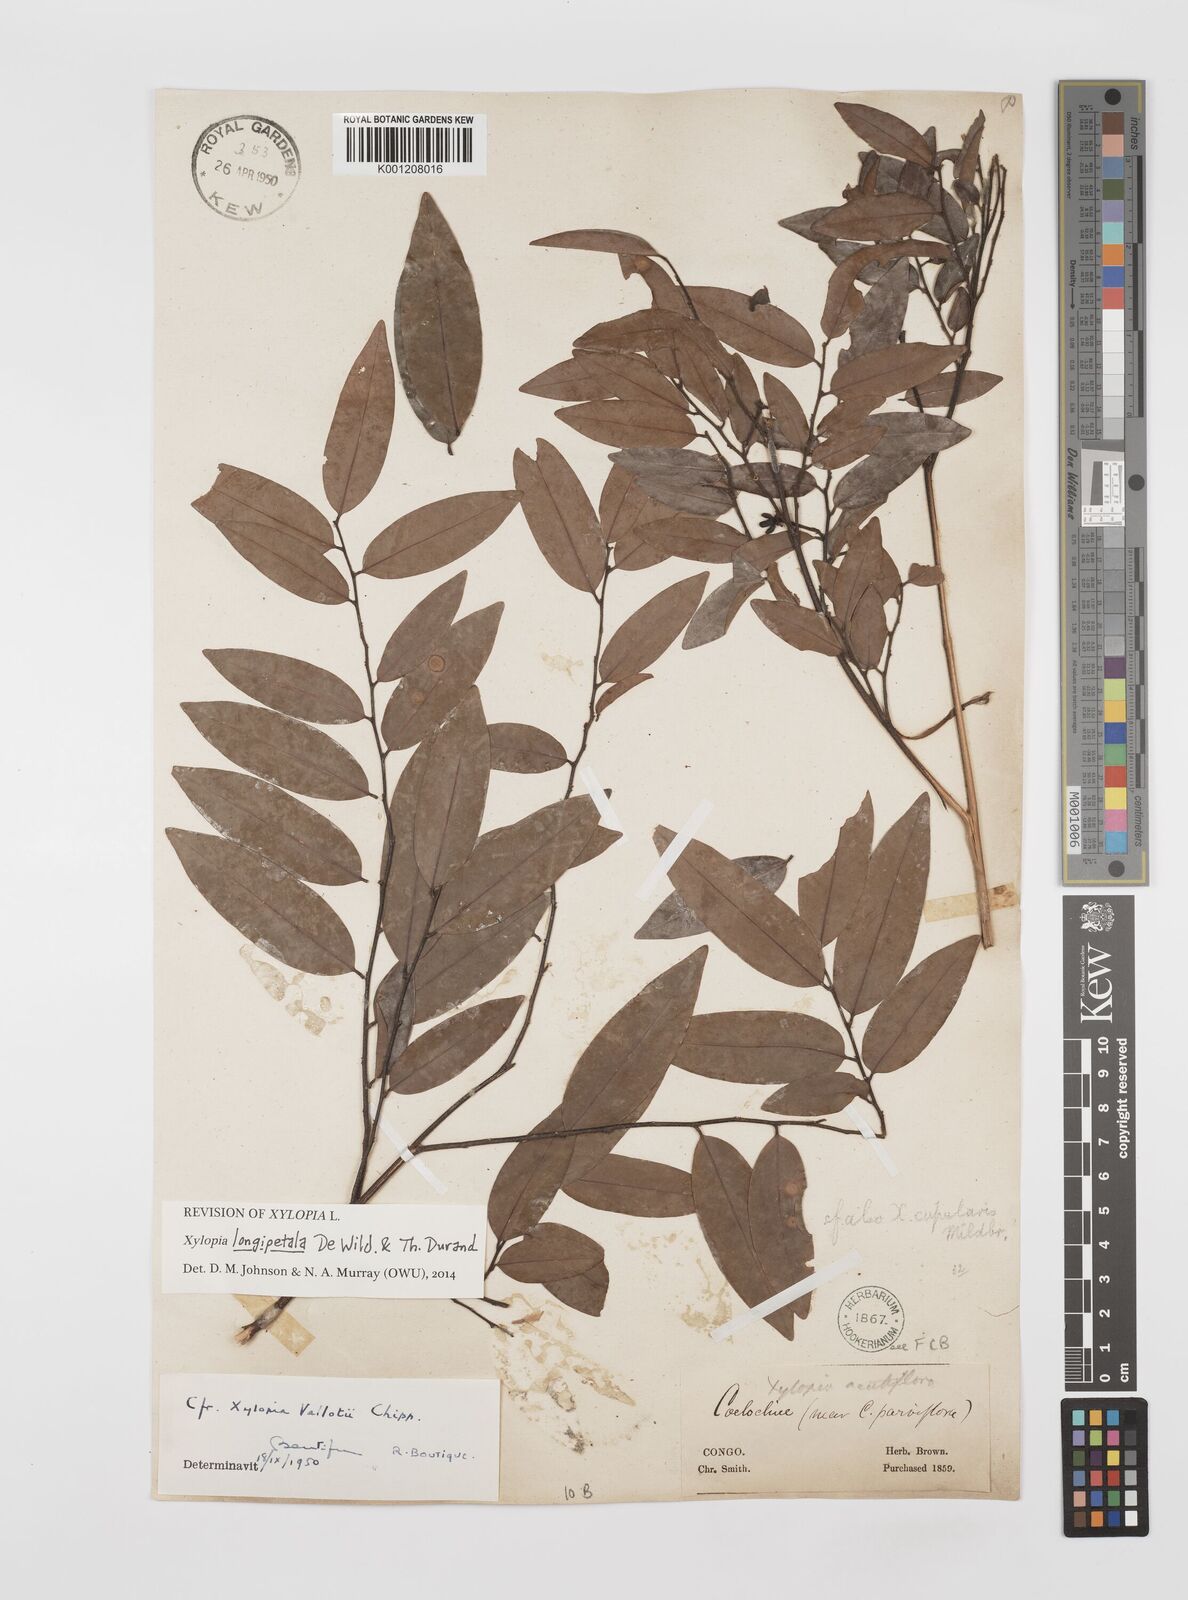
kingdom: Plantae
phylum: Tracheophyta
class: Magnoliopsida
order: Magnoliales
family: Annonaceae
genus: Xylopia
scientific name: Xylopia parviflora
